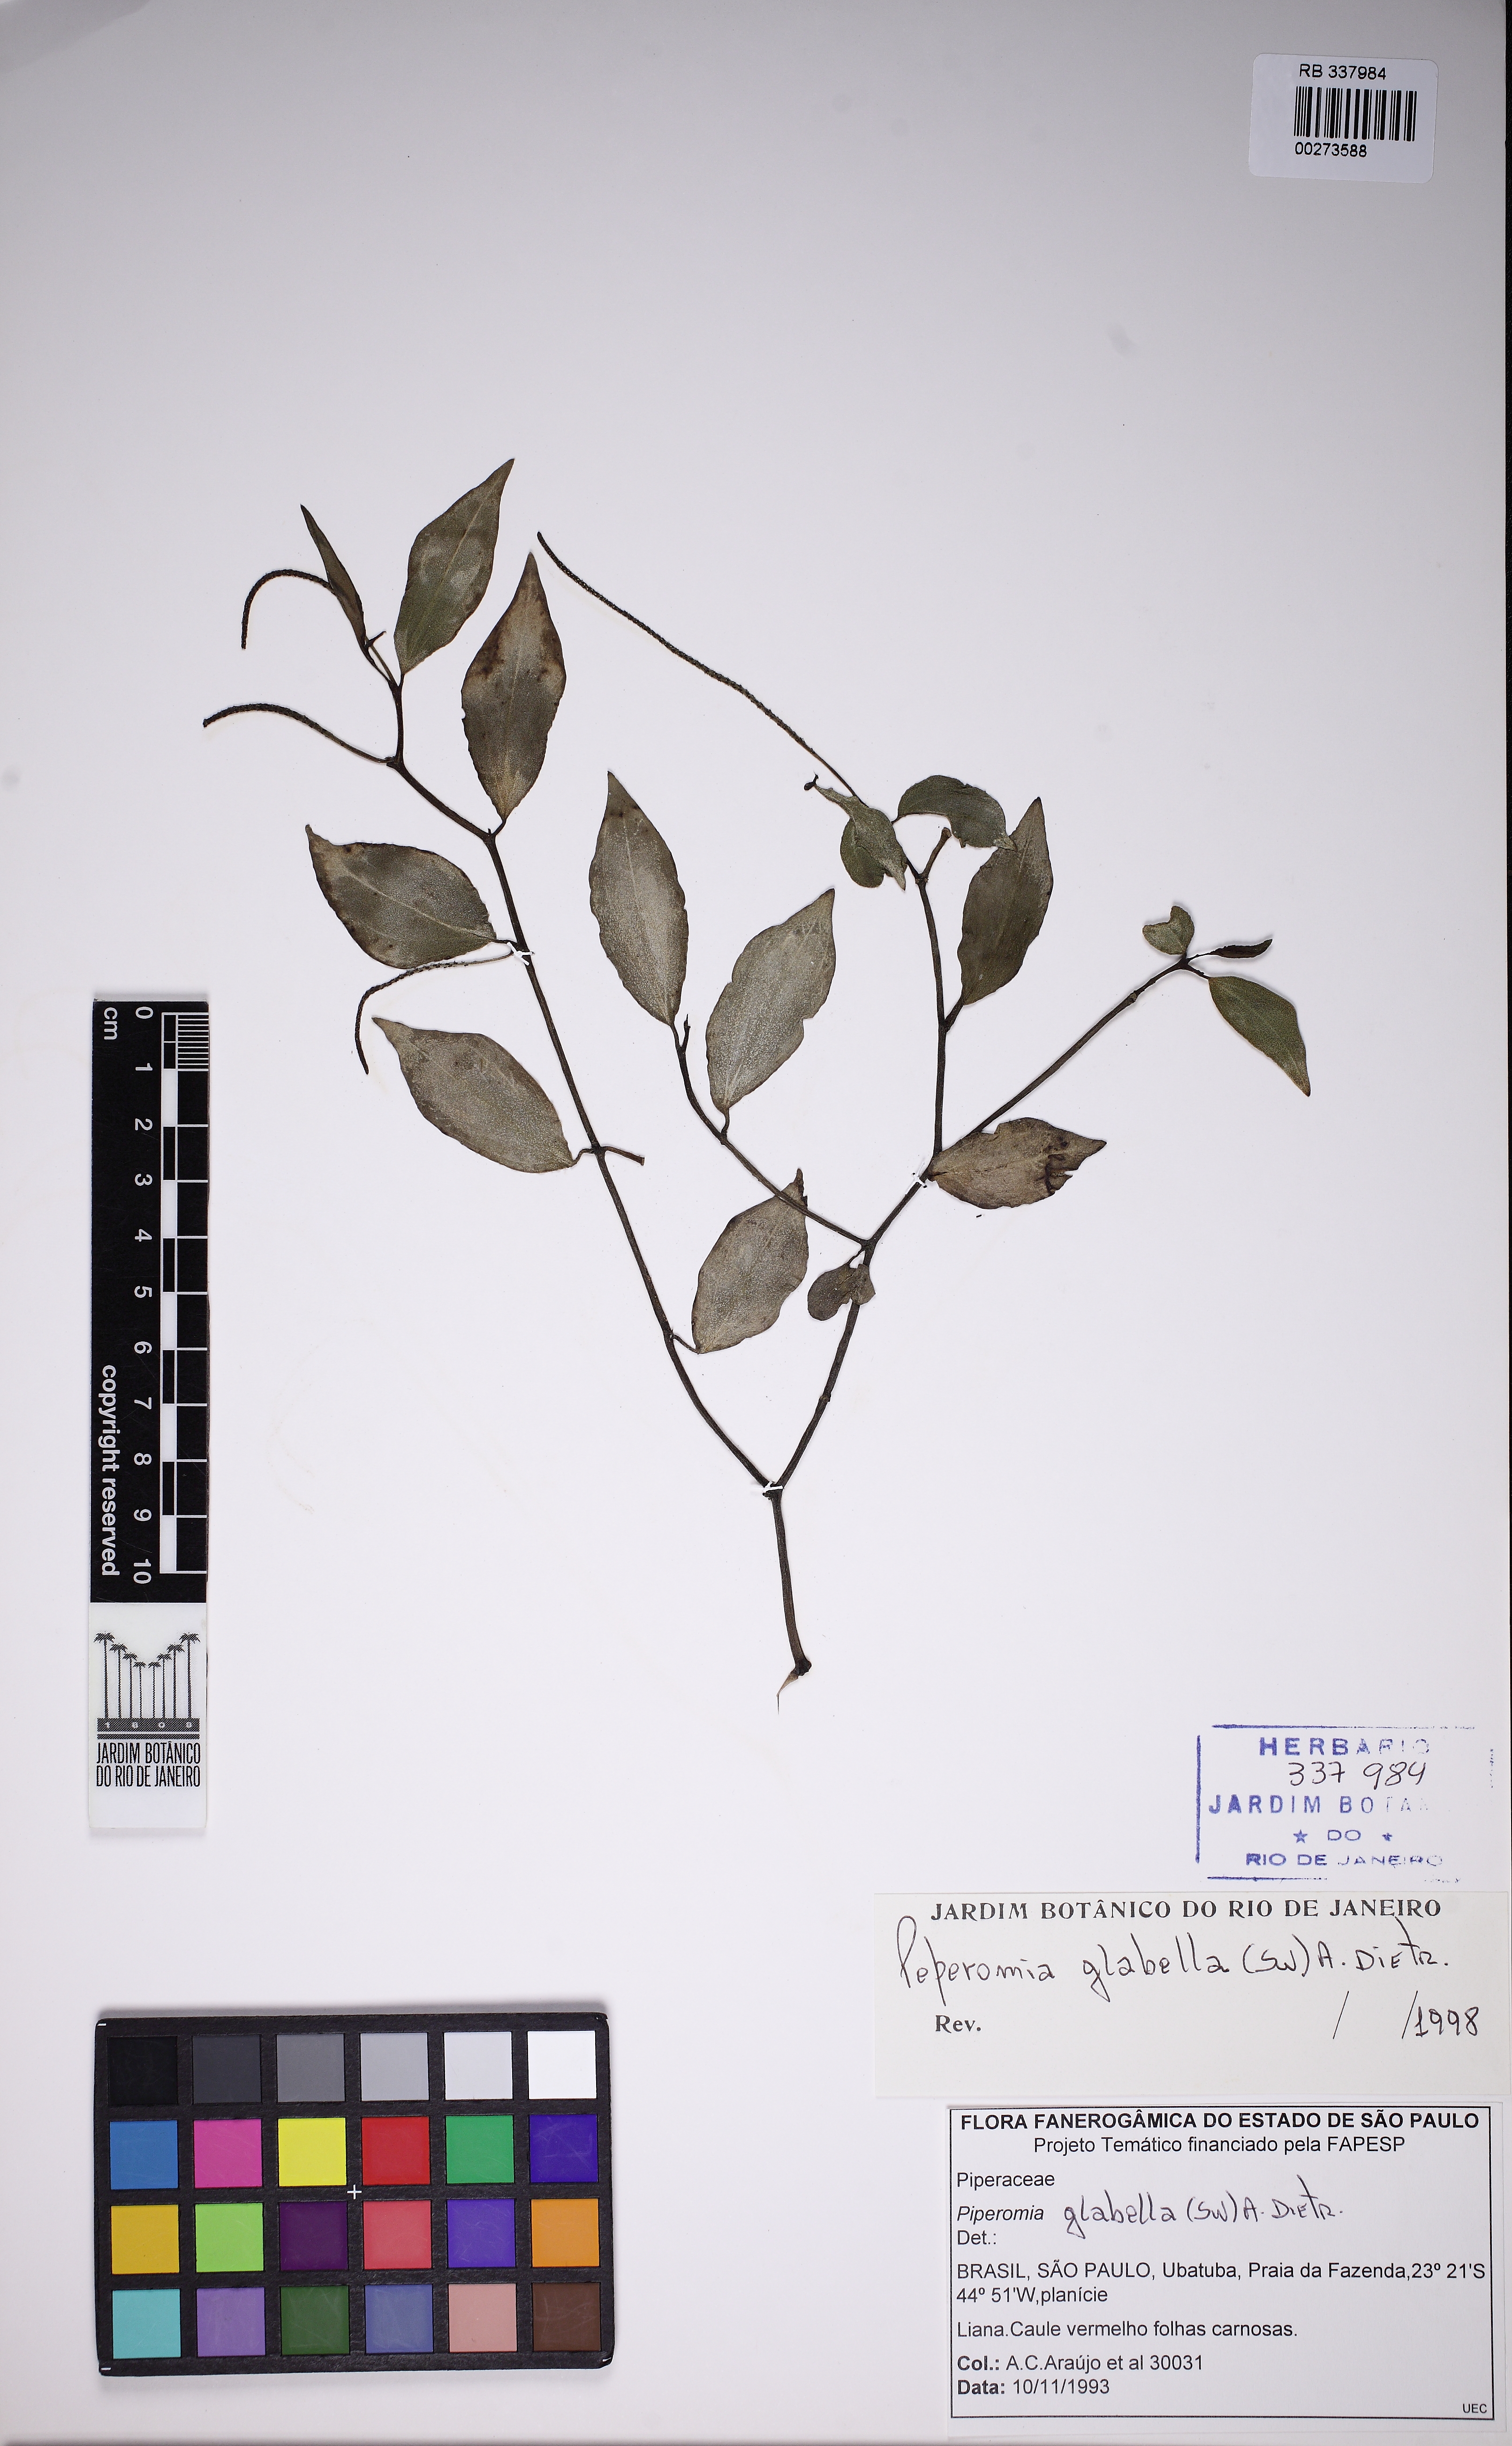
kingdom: Plantae
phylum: Tracheophyta
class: Magnoliopsida
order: Piperales
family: Piperaceae
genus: Peperomia
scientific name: Peperomia glabella
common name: Cypress peperomia
